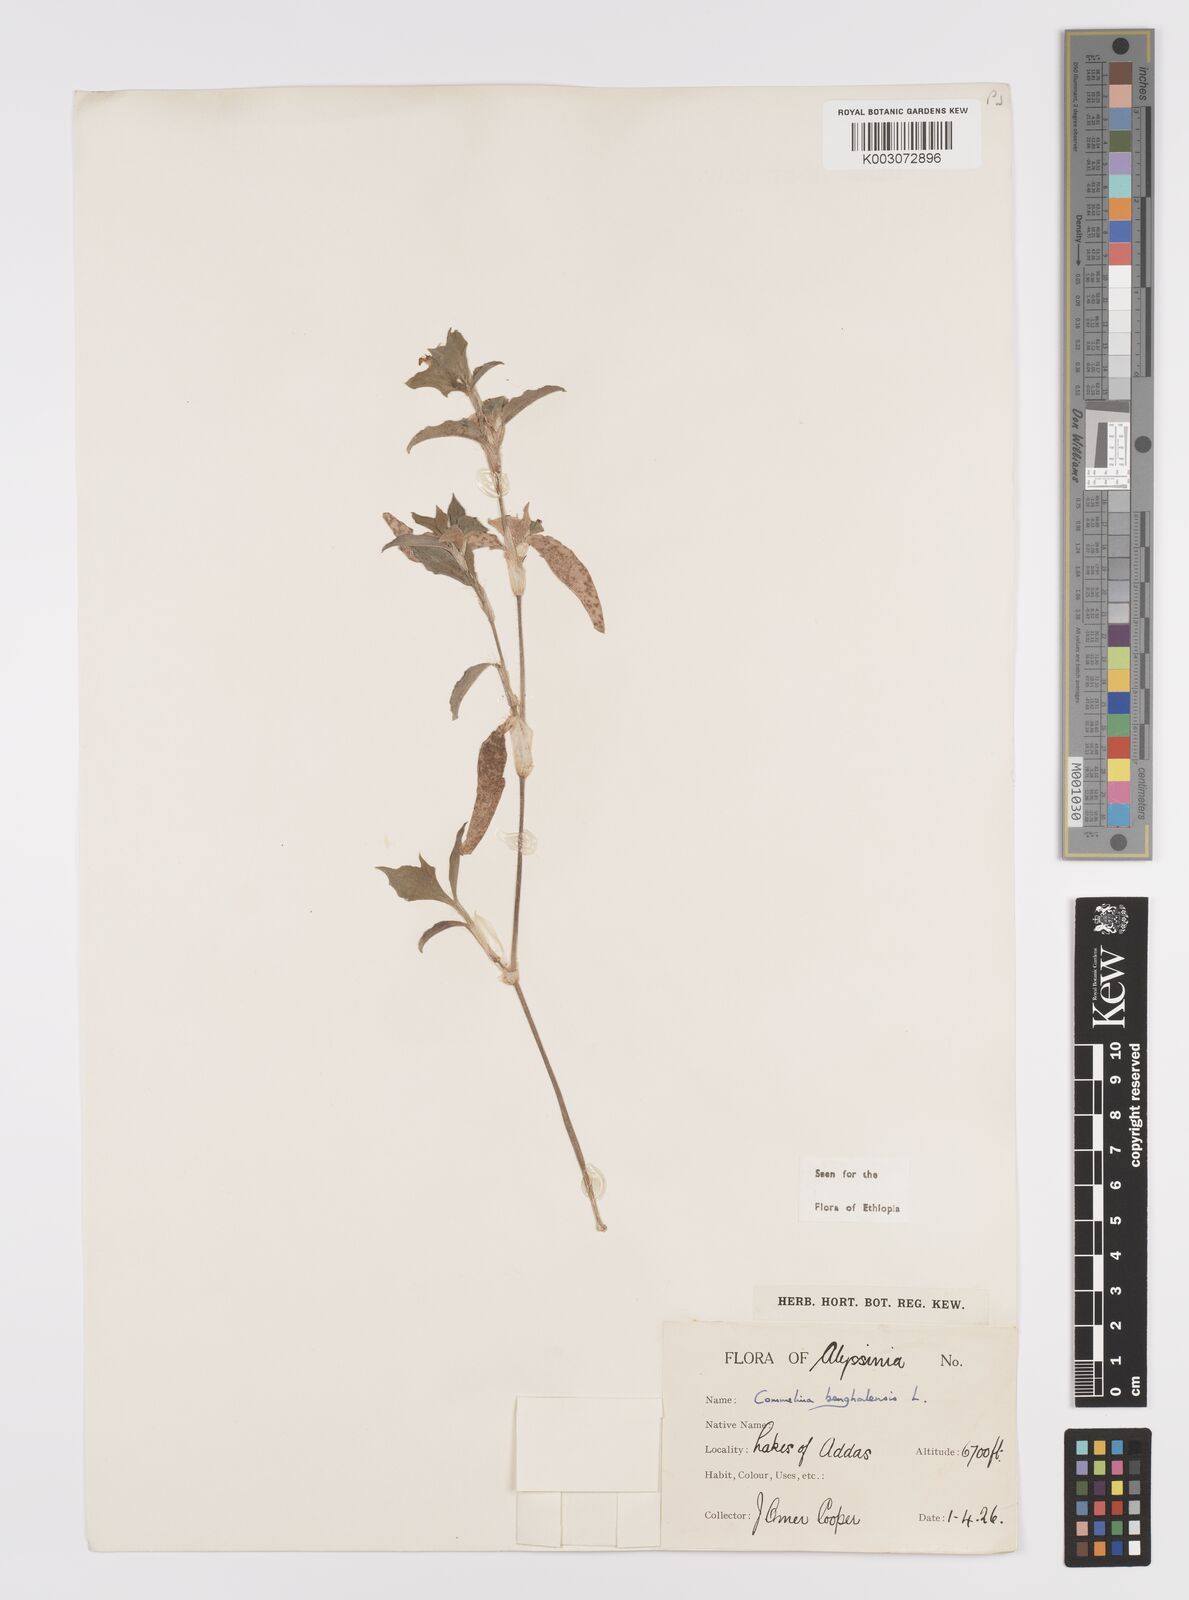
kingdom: Plantae
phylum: Tracheophyta
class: Liliopsida
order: Commelinales
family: Commelinaceae
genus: Commelina
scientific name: Commelina benghalensis
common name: Jio
